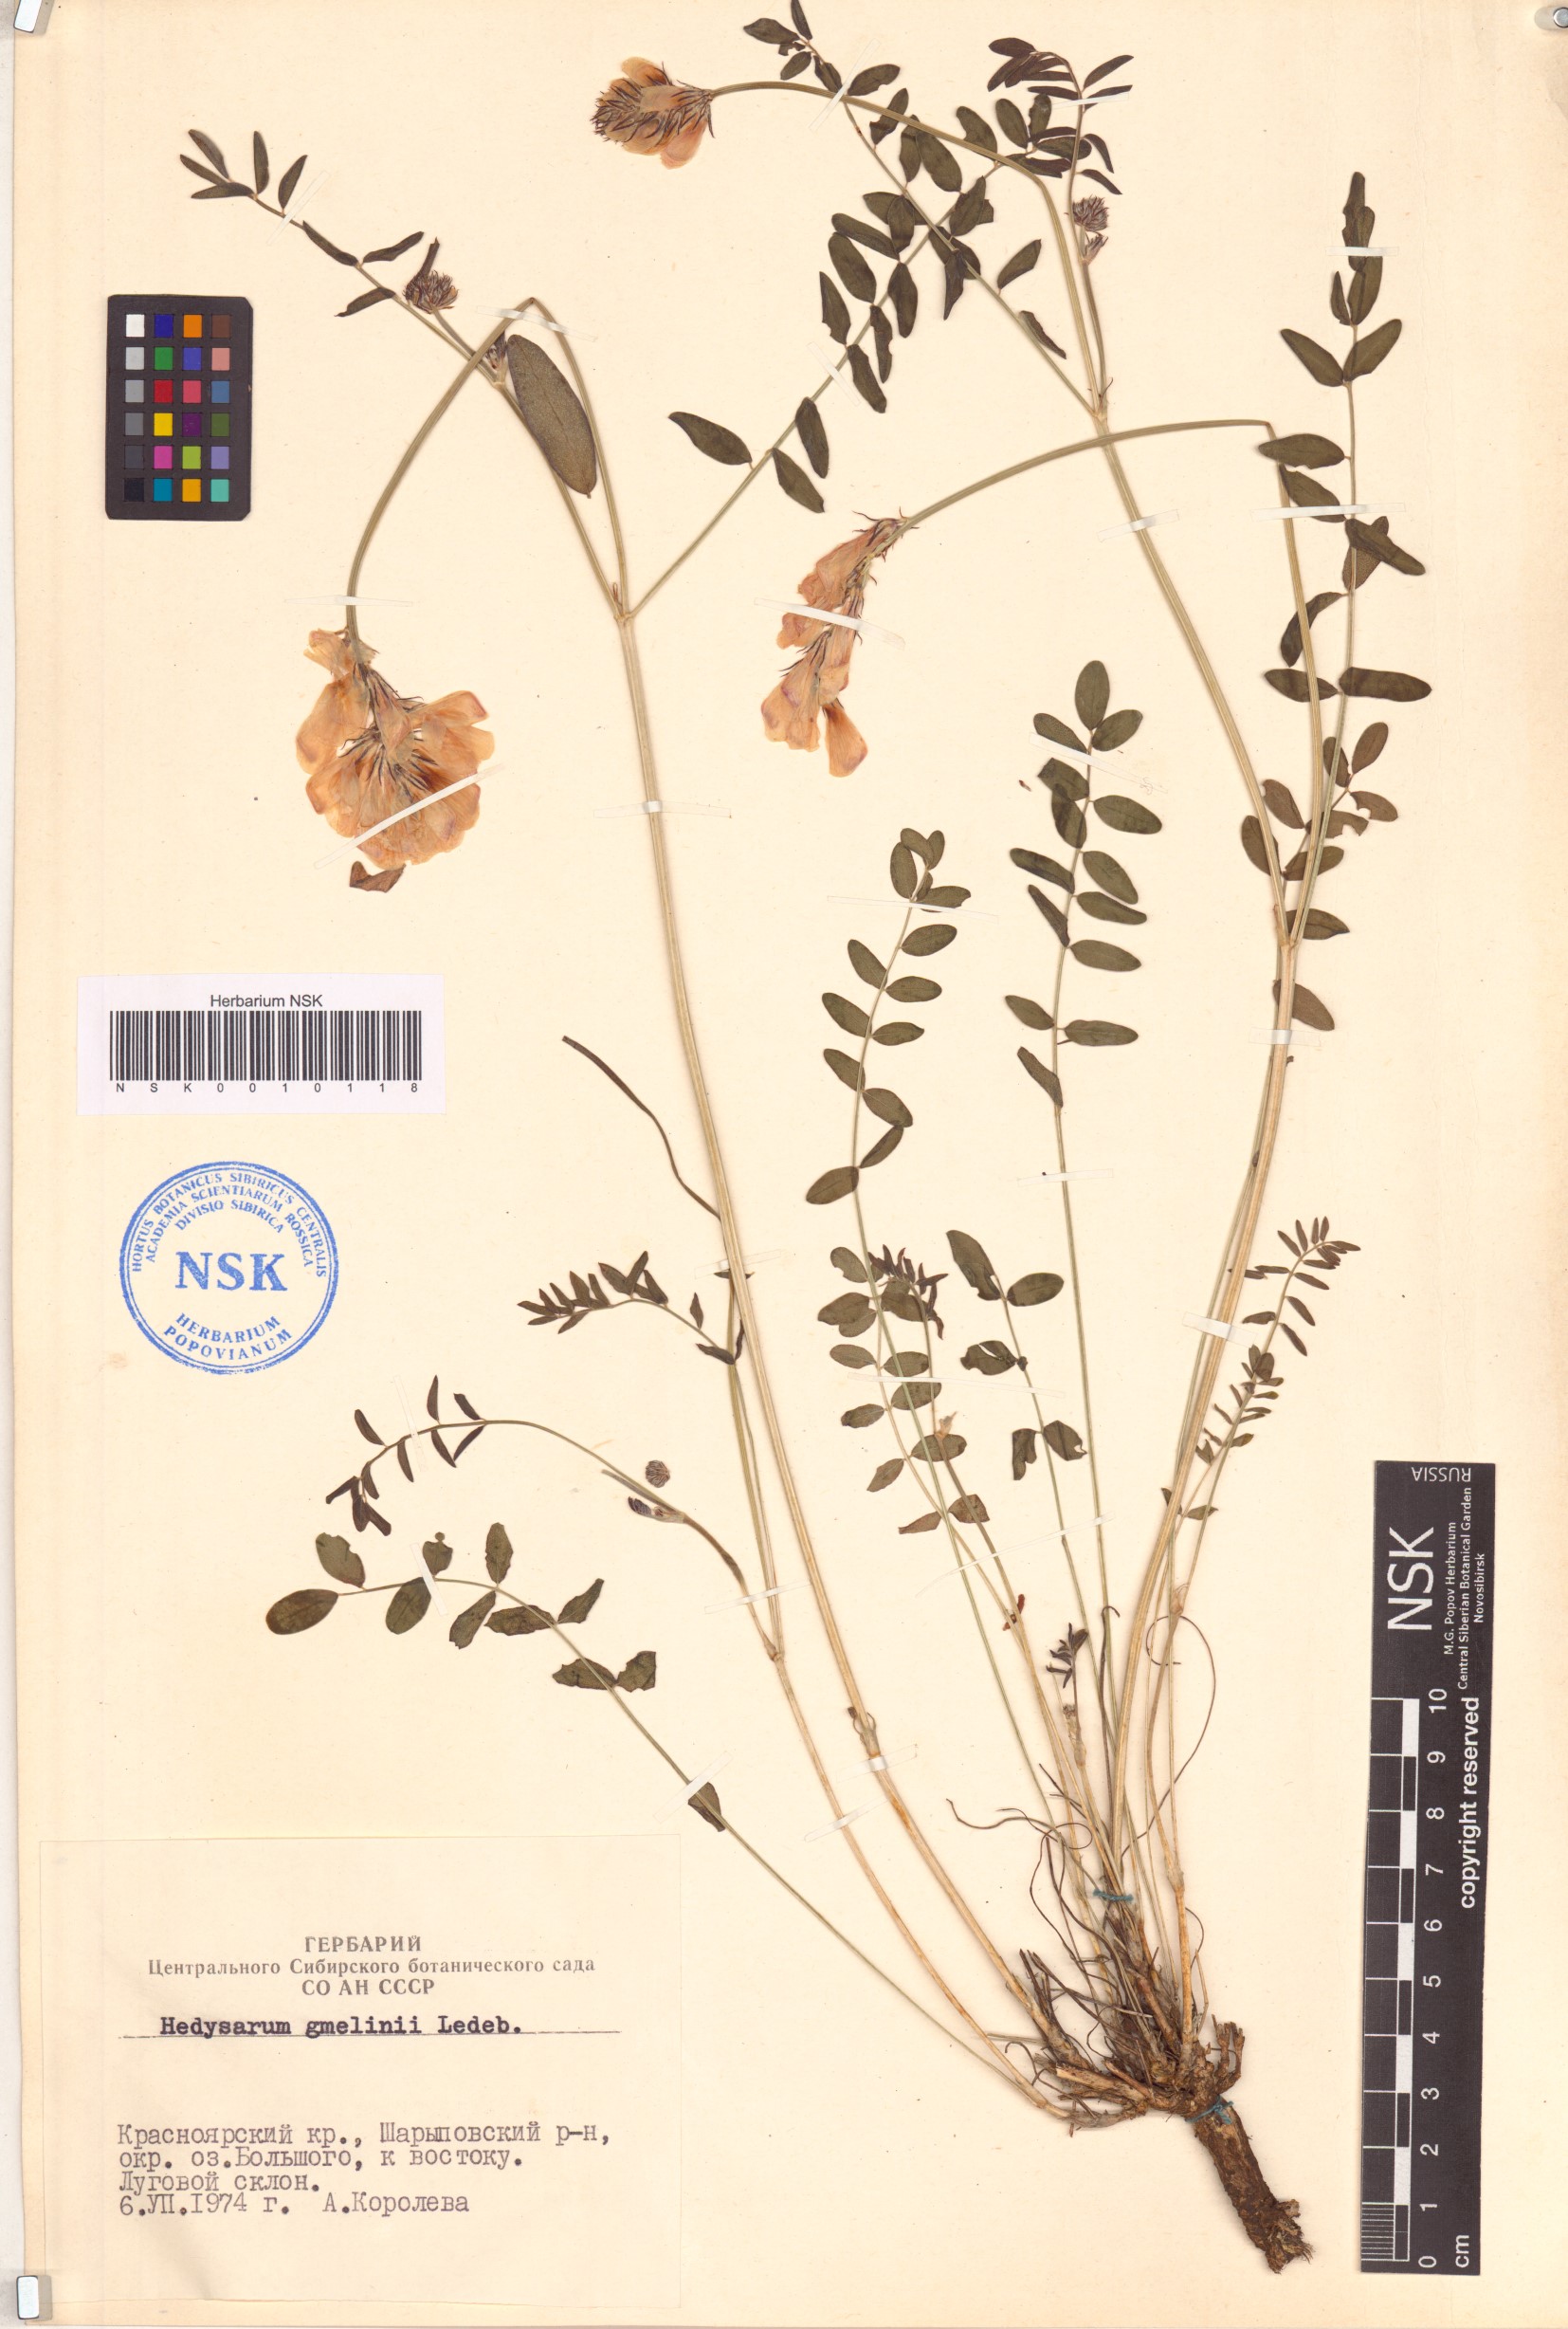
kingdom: Plantae
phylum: Tracheophyta
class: Magnoliopsida
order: Fabales
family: Fabaceae
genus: Hedysarum
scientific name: Hedysarum gmelinii
